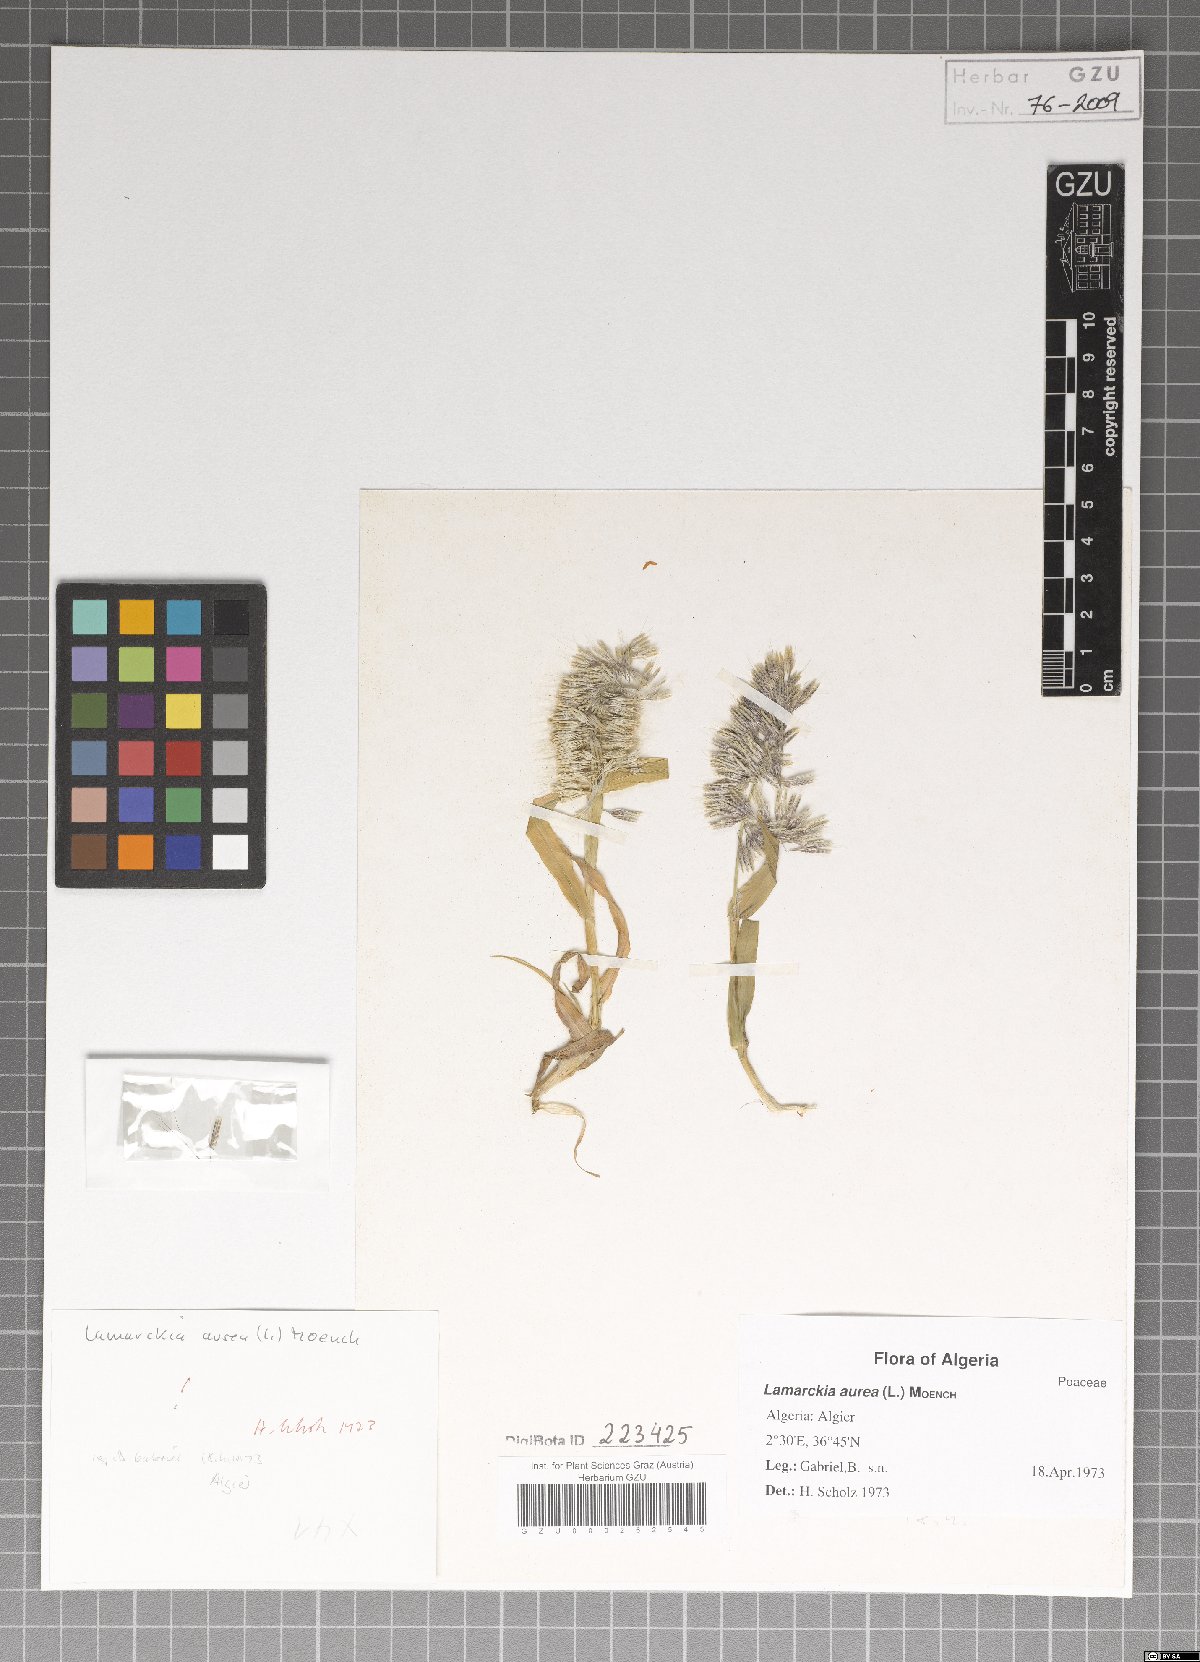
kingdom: Plantae
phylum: Tracheophyta
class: Liliopsida
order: Poales
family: Poaceae
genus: Lamarckia
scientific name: Lamarckia aurea
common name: Golden dog's-tail
